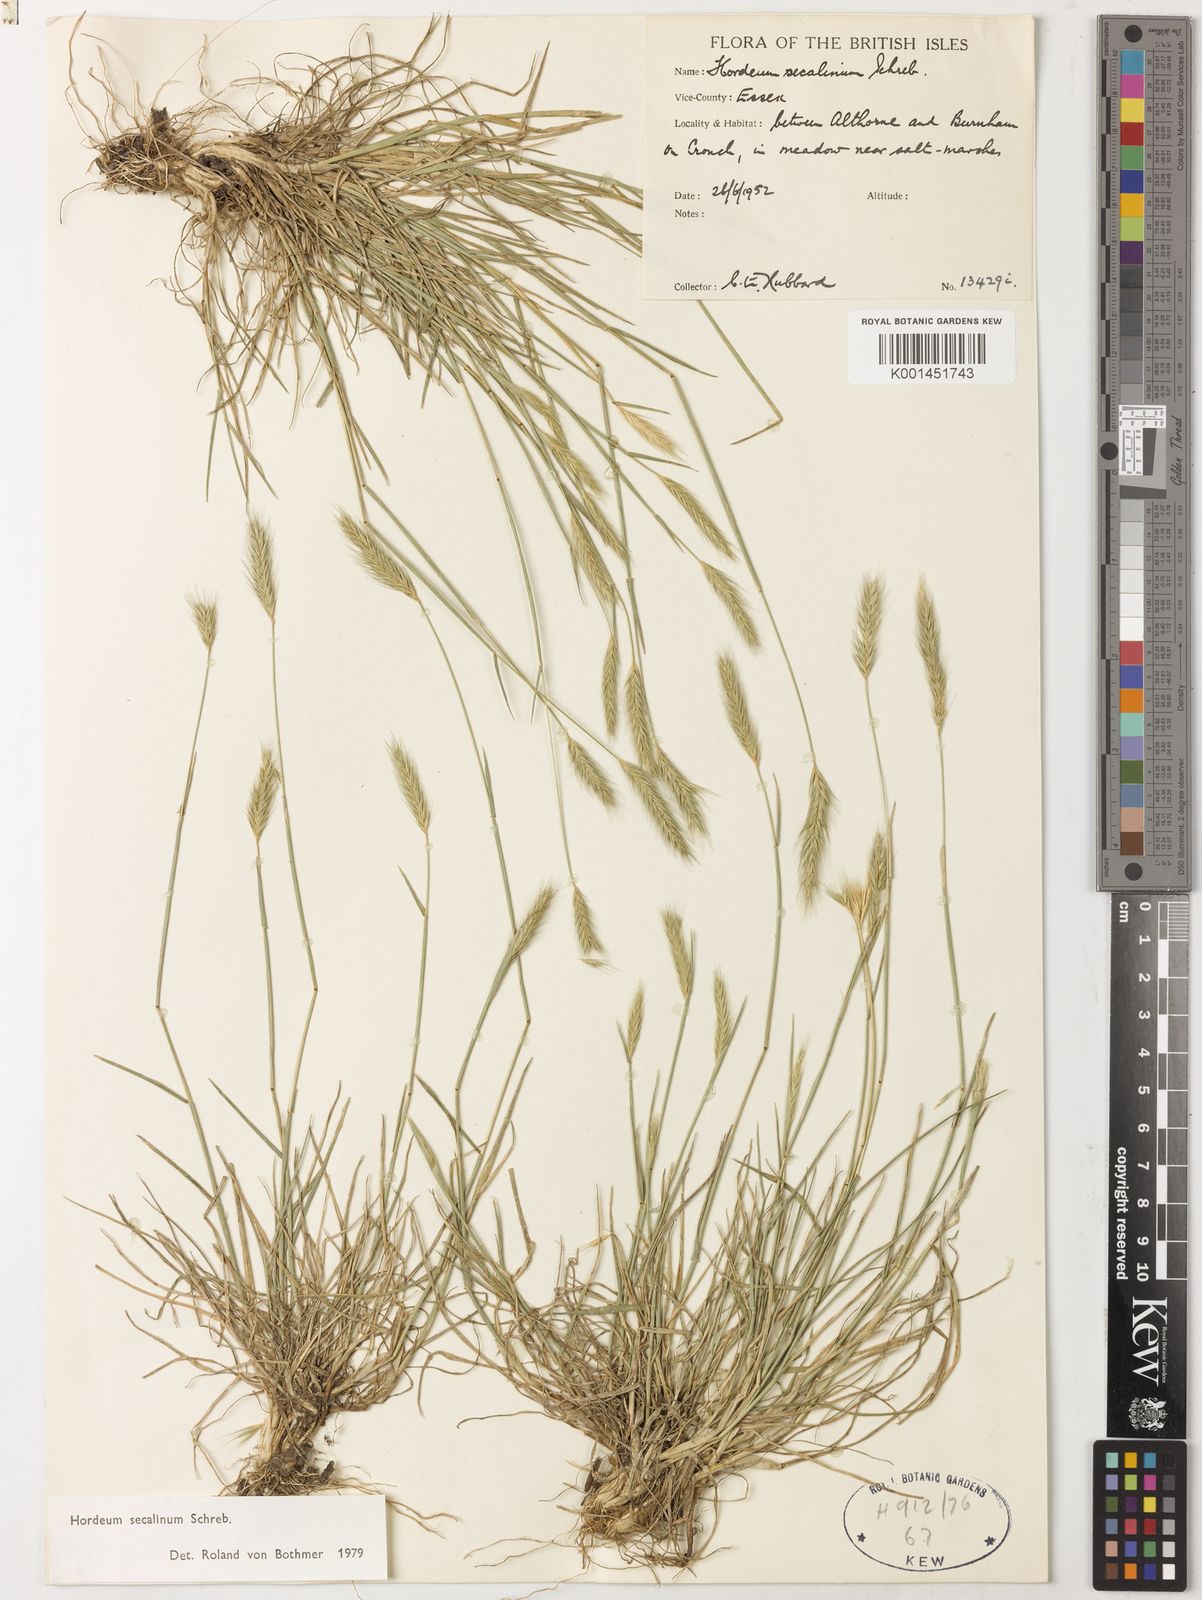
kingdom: Plantae
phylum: Tracheophyta
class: Liliopsida
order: Poales
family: Poaceae
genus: Hordeum
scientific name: Hordeum secalinum
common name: Meadow barley
